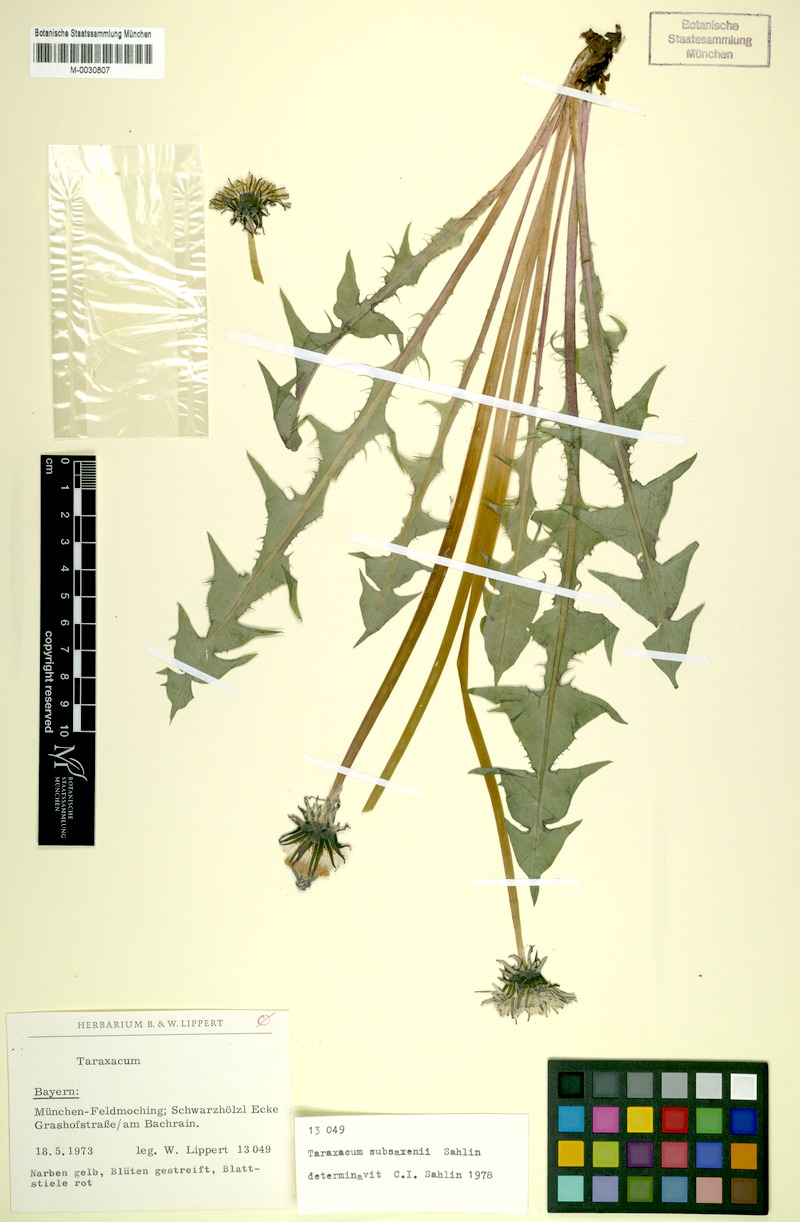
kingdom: Plantae
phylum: Tracheophyta
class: Magnoliopsida
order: Asterales
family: Asteraceae
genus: Taraxacum
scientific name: Taraxacum subsaxenii
